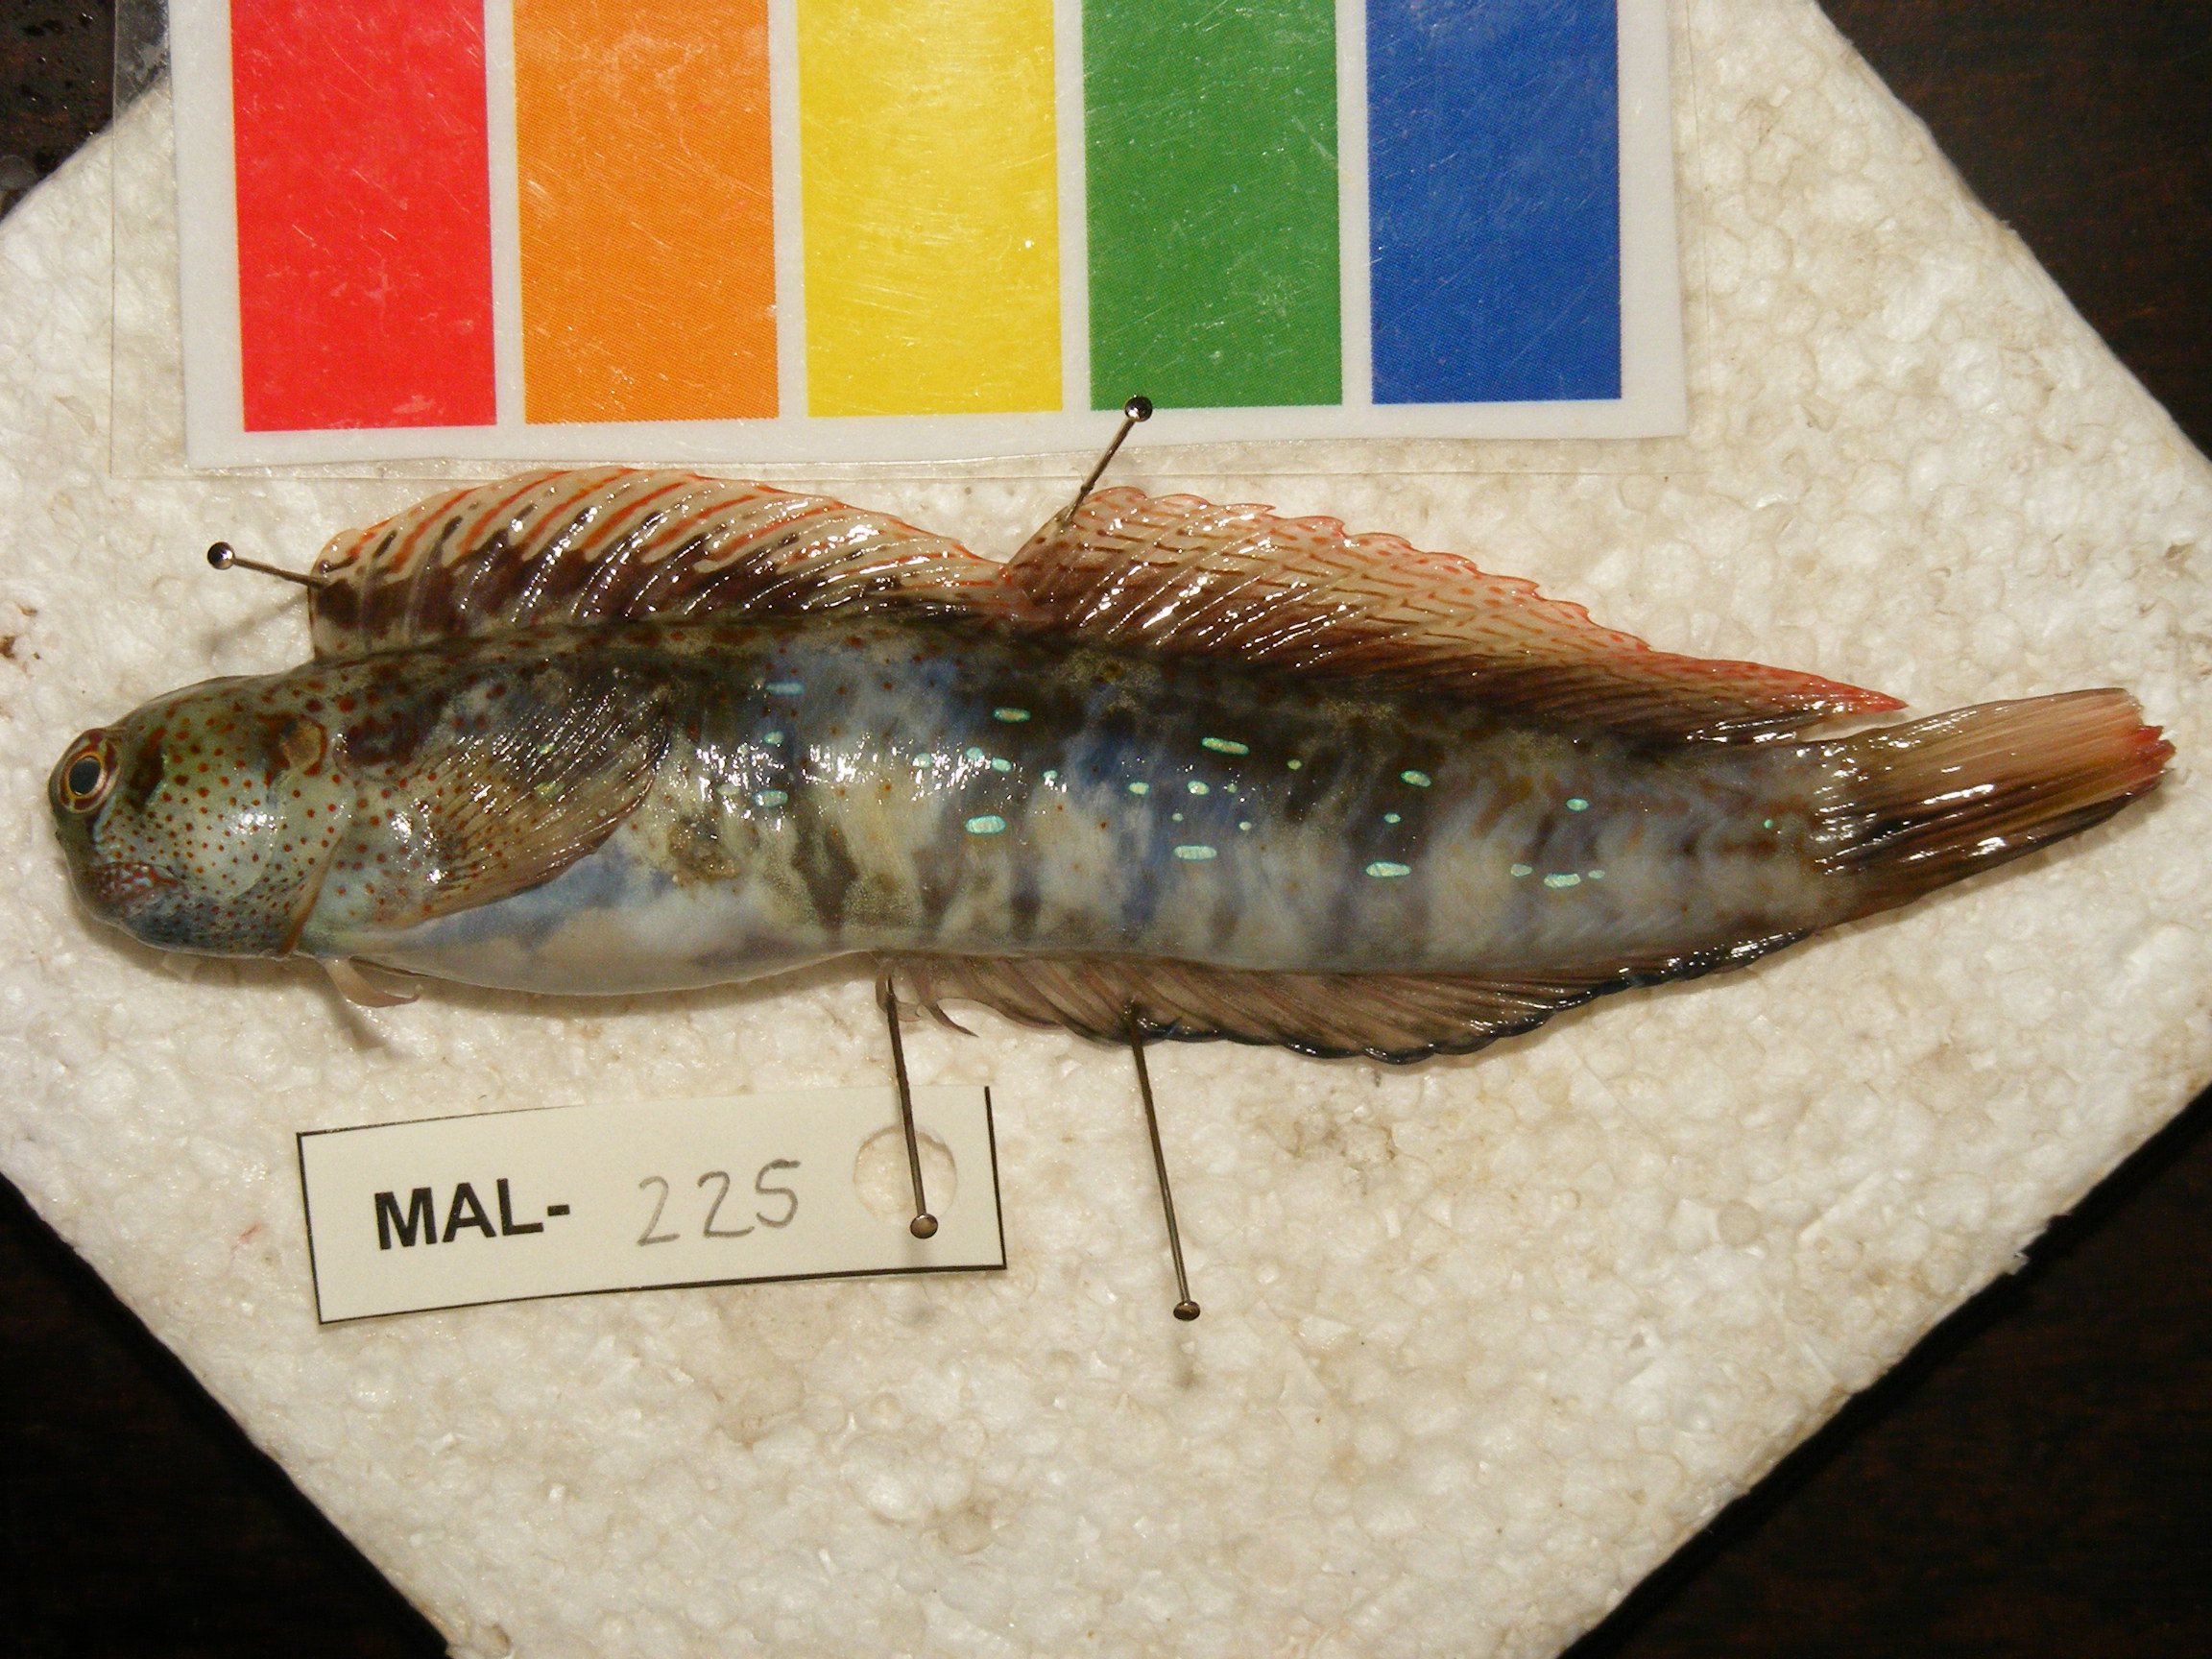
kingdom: Animalia
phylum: Chordata
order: Perciformes
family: Blenniidae
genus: Blenniella
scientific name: Blenniella periophthalmus
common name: Blue-dashed rockskipper
